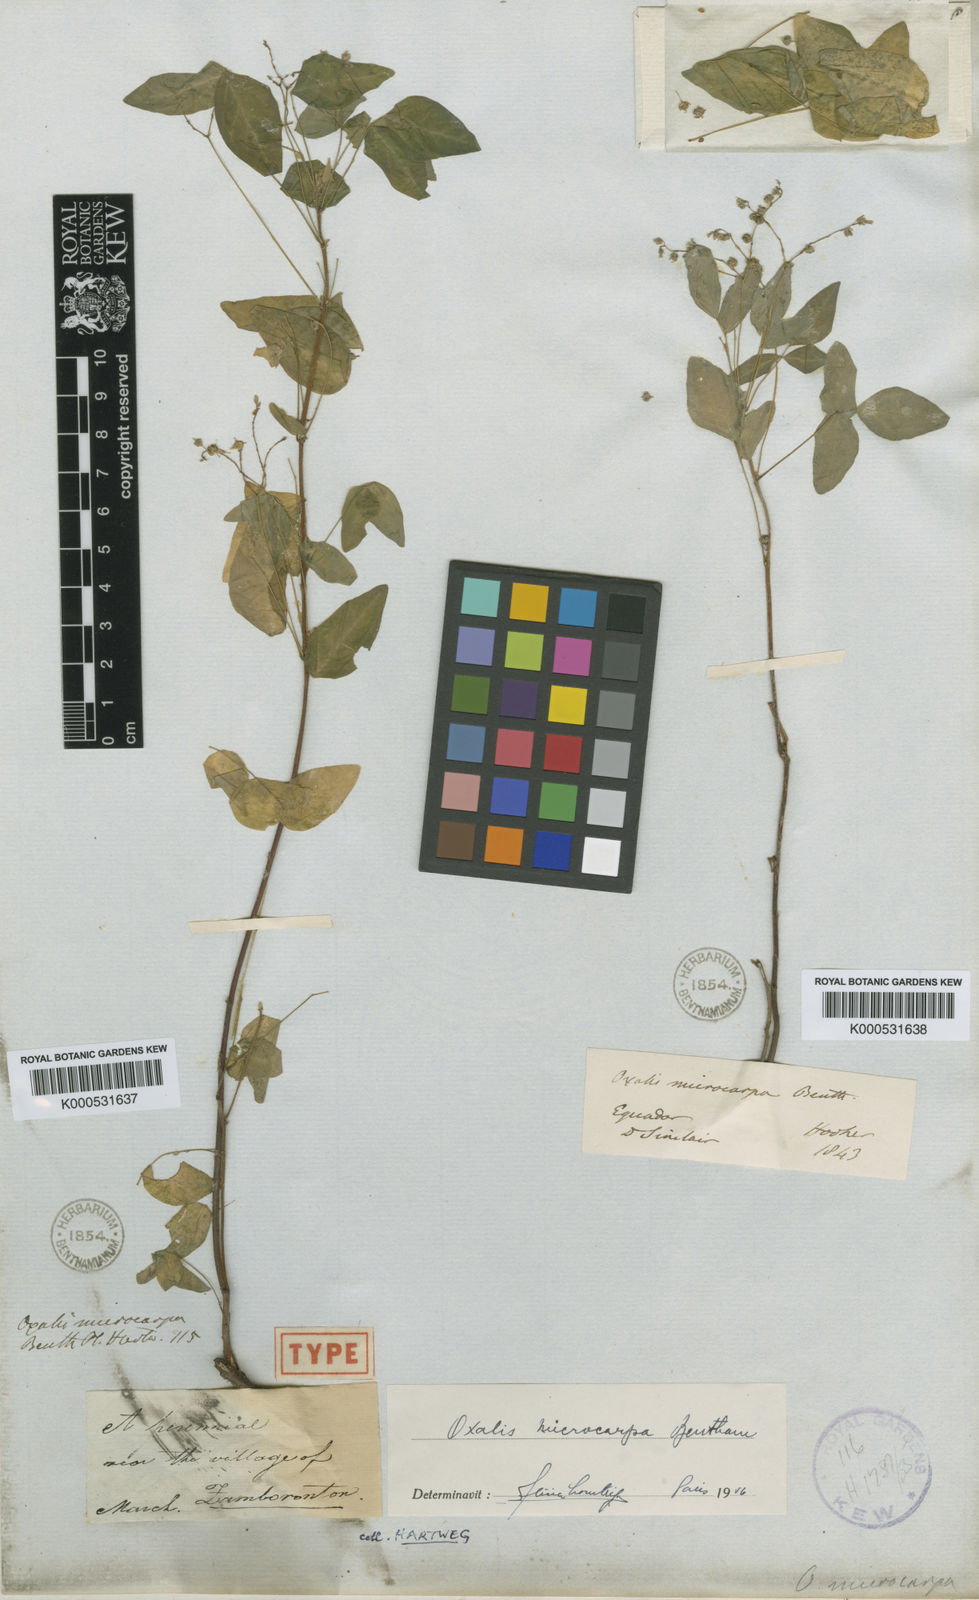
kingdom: Plantae
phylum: Tracheophyta
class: Magnoliopsida
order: Oxalidales
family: Oxalidaceae
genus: Oxalis
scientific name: Oxalis microcarpa
